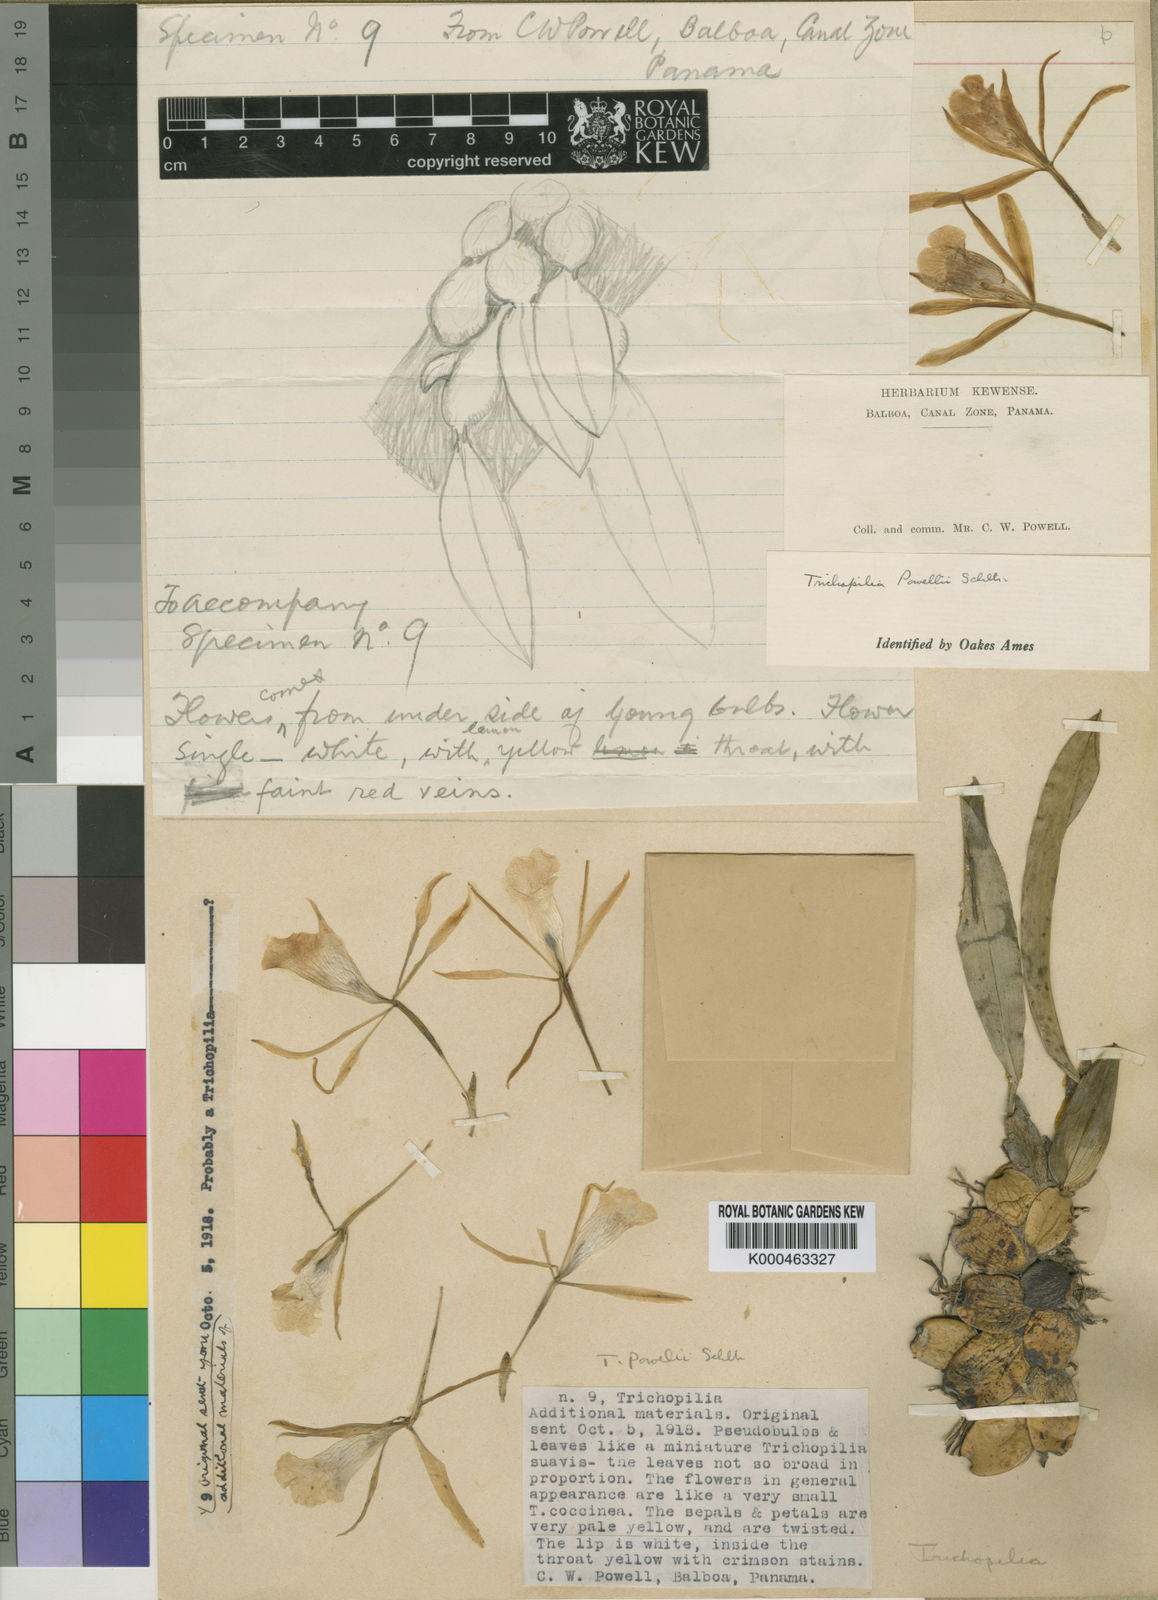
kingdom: Plantae
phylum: Tracheophyta
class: Liliopsida
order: Asparagales
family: Orchidaceae
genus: Trichopilia
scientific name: Trichopilia maculata
